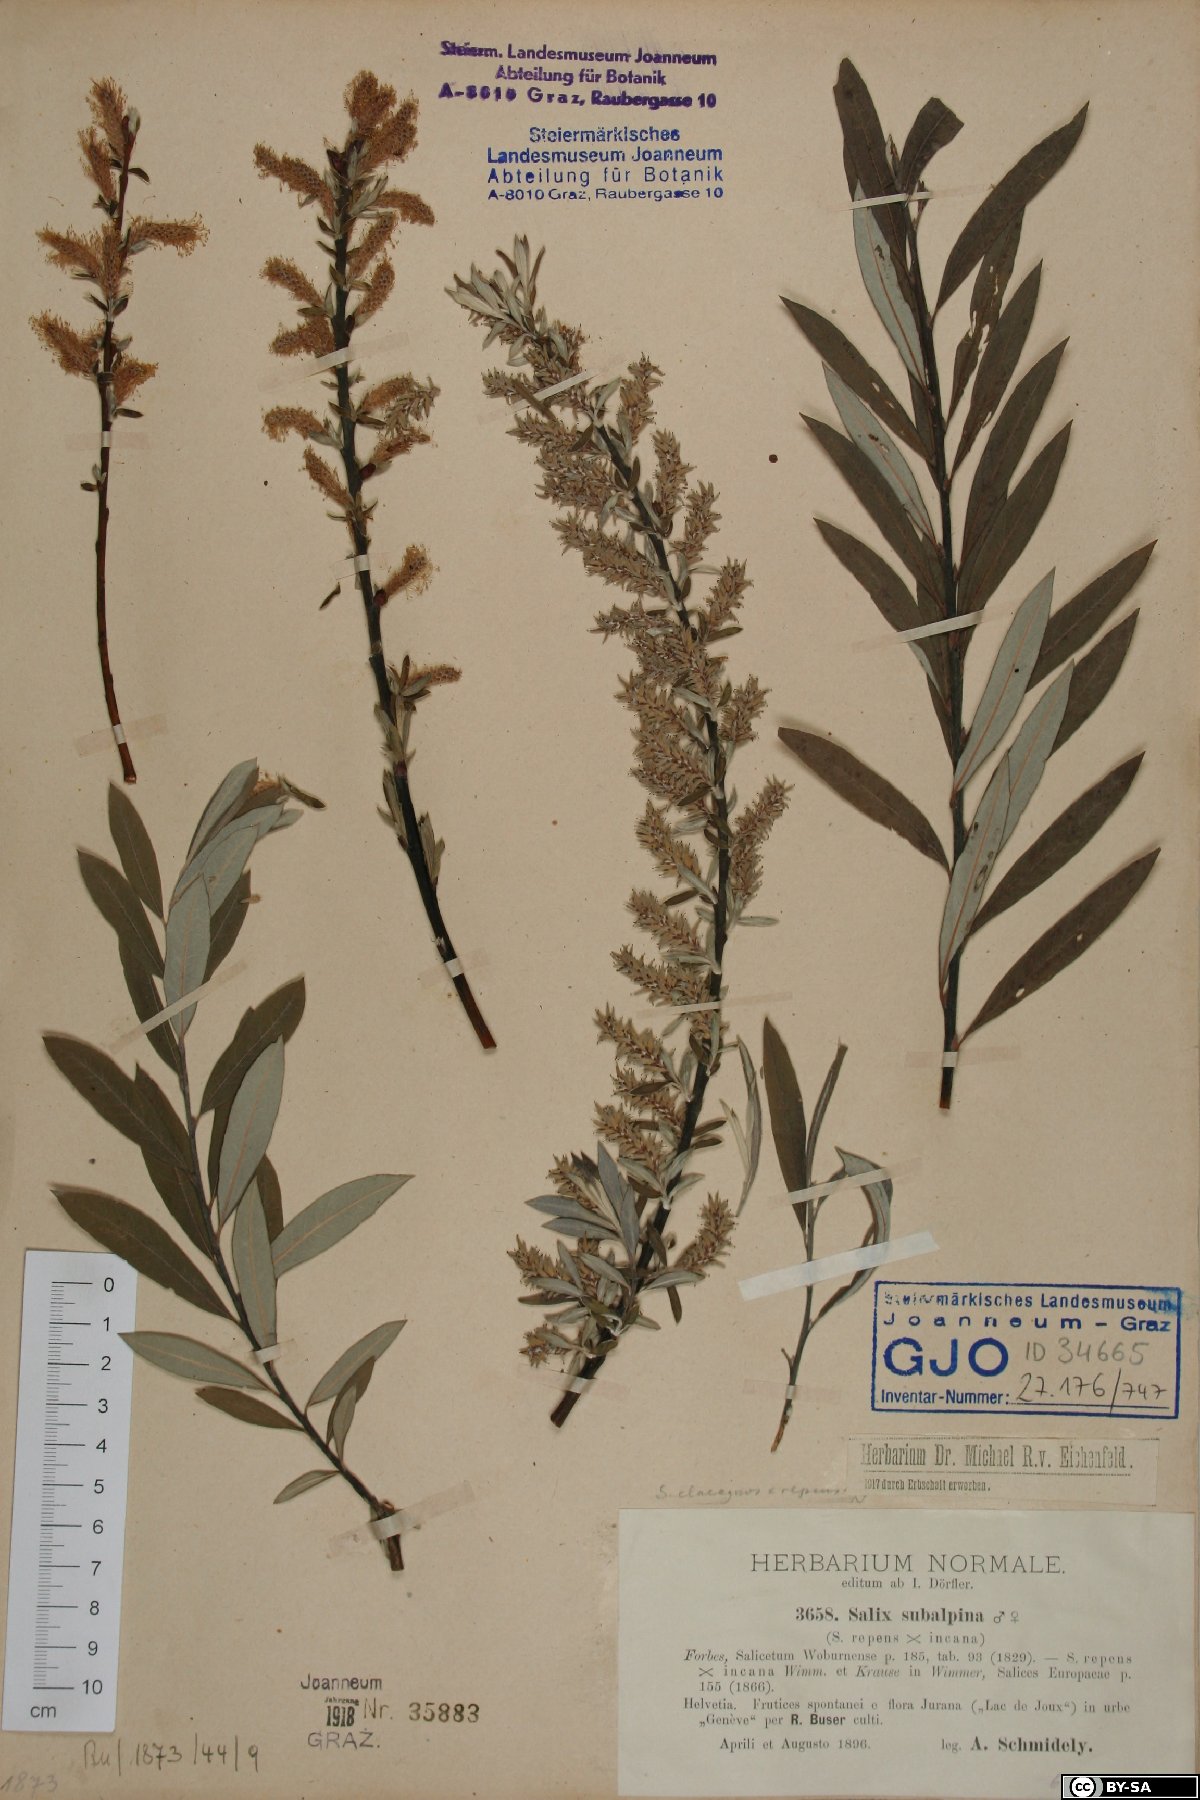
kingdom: Plantae
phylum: Tracheophyta
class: Magnoliopsida
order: Malpighiales
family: Salicaceae
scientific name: Salicaceae
